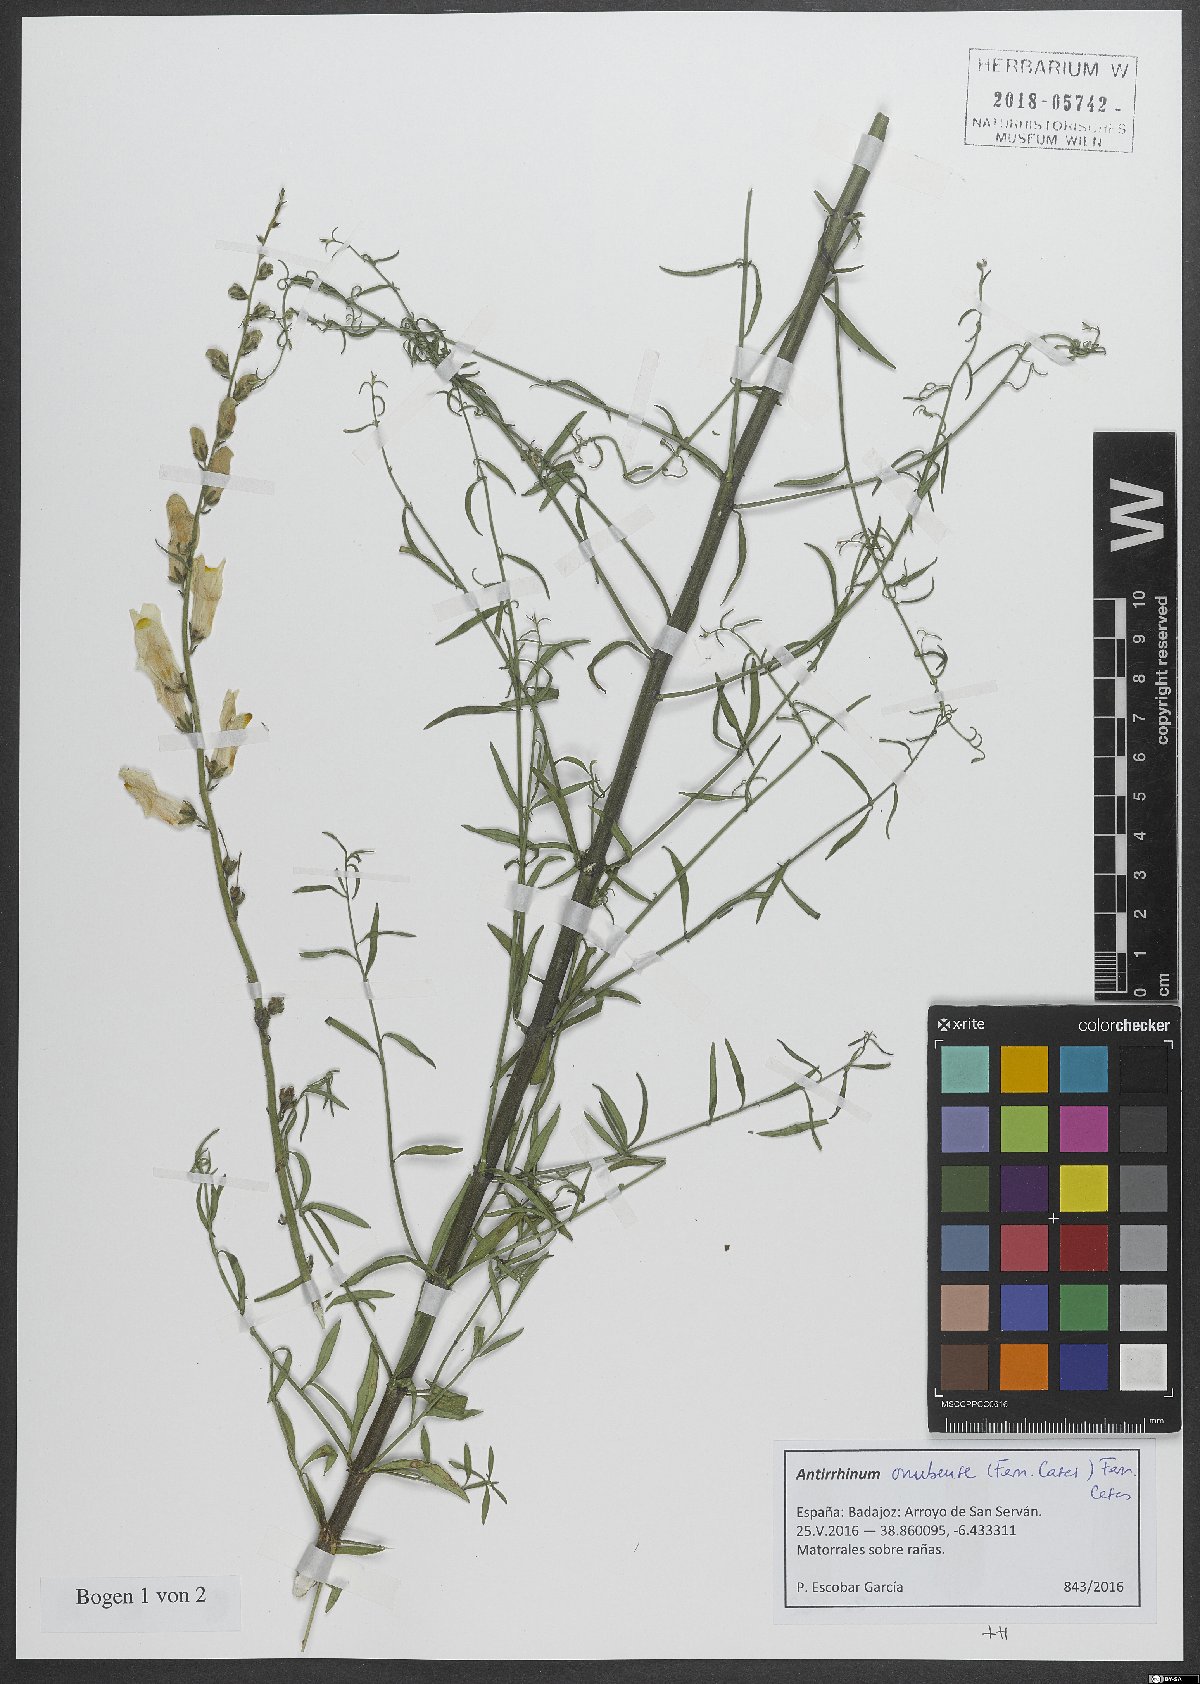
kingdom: Plantae
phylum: Tracheophyta
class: Magnoliopsida
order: Lamiales
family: Plantaginaceae
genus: Antirrhinum
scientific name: Antirrhinum onubense
